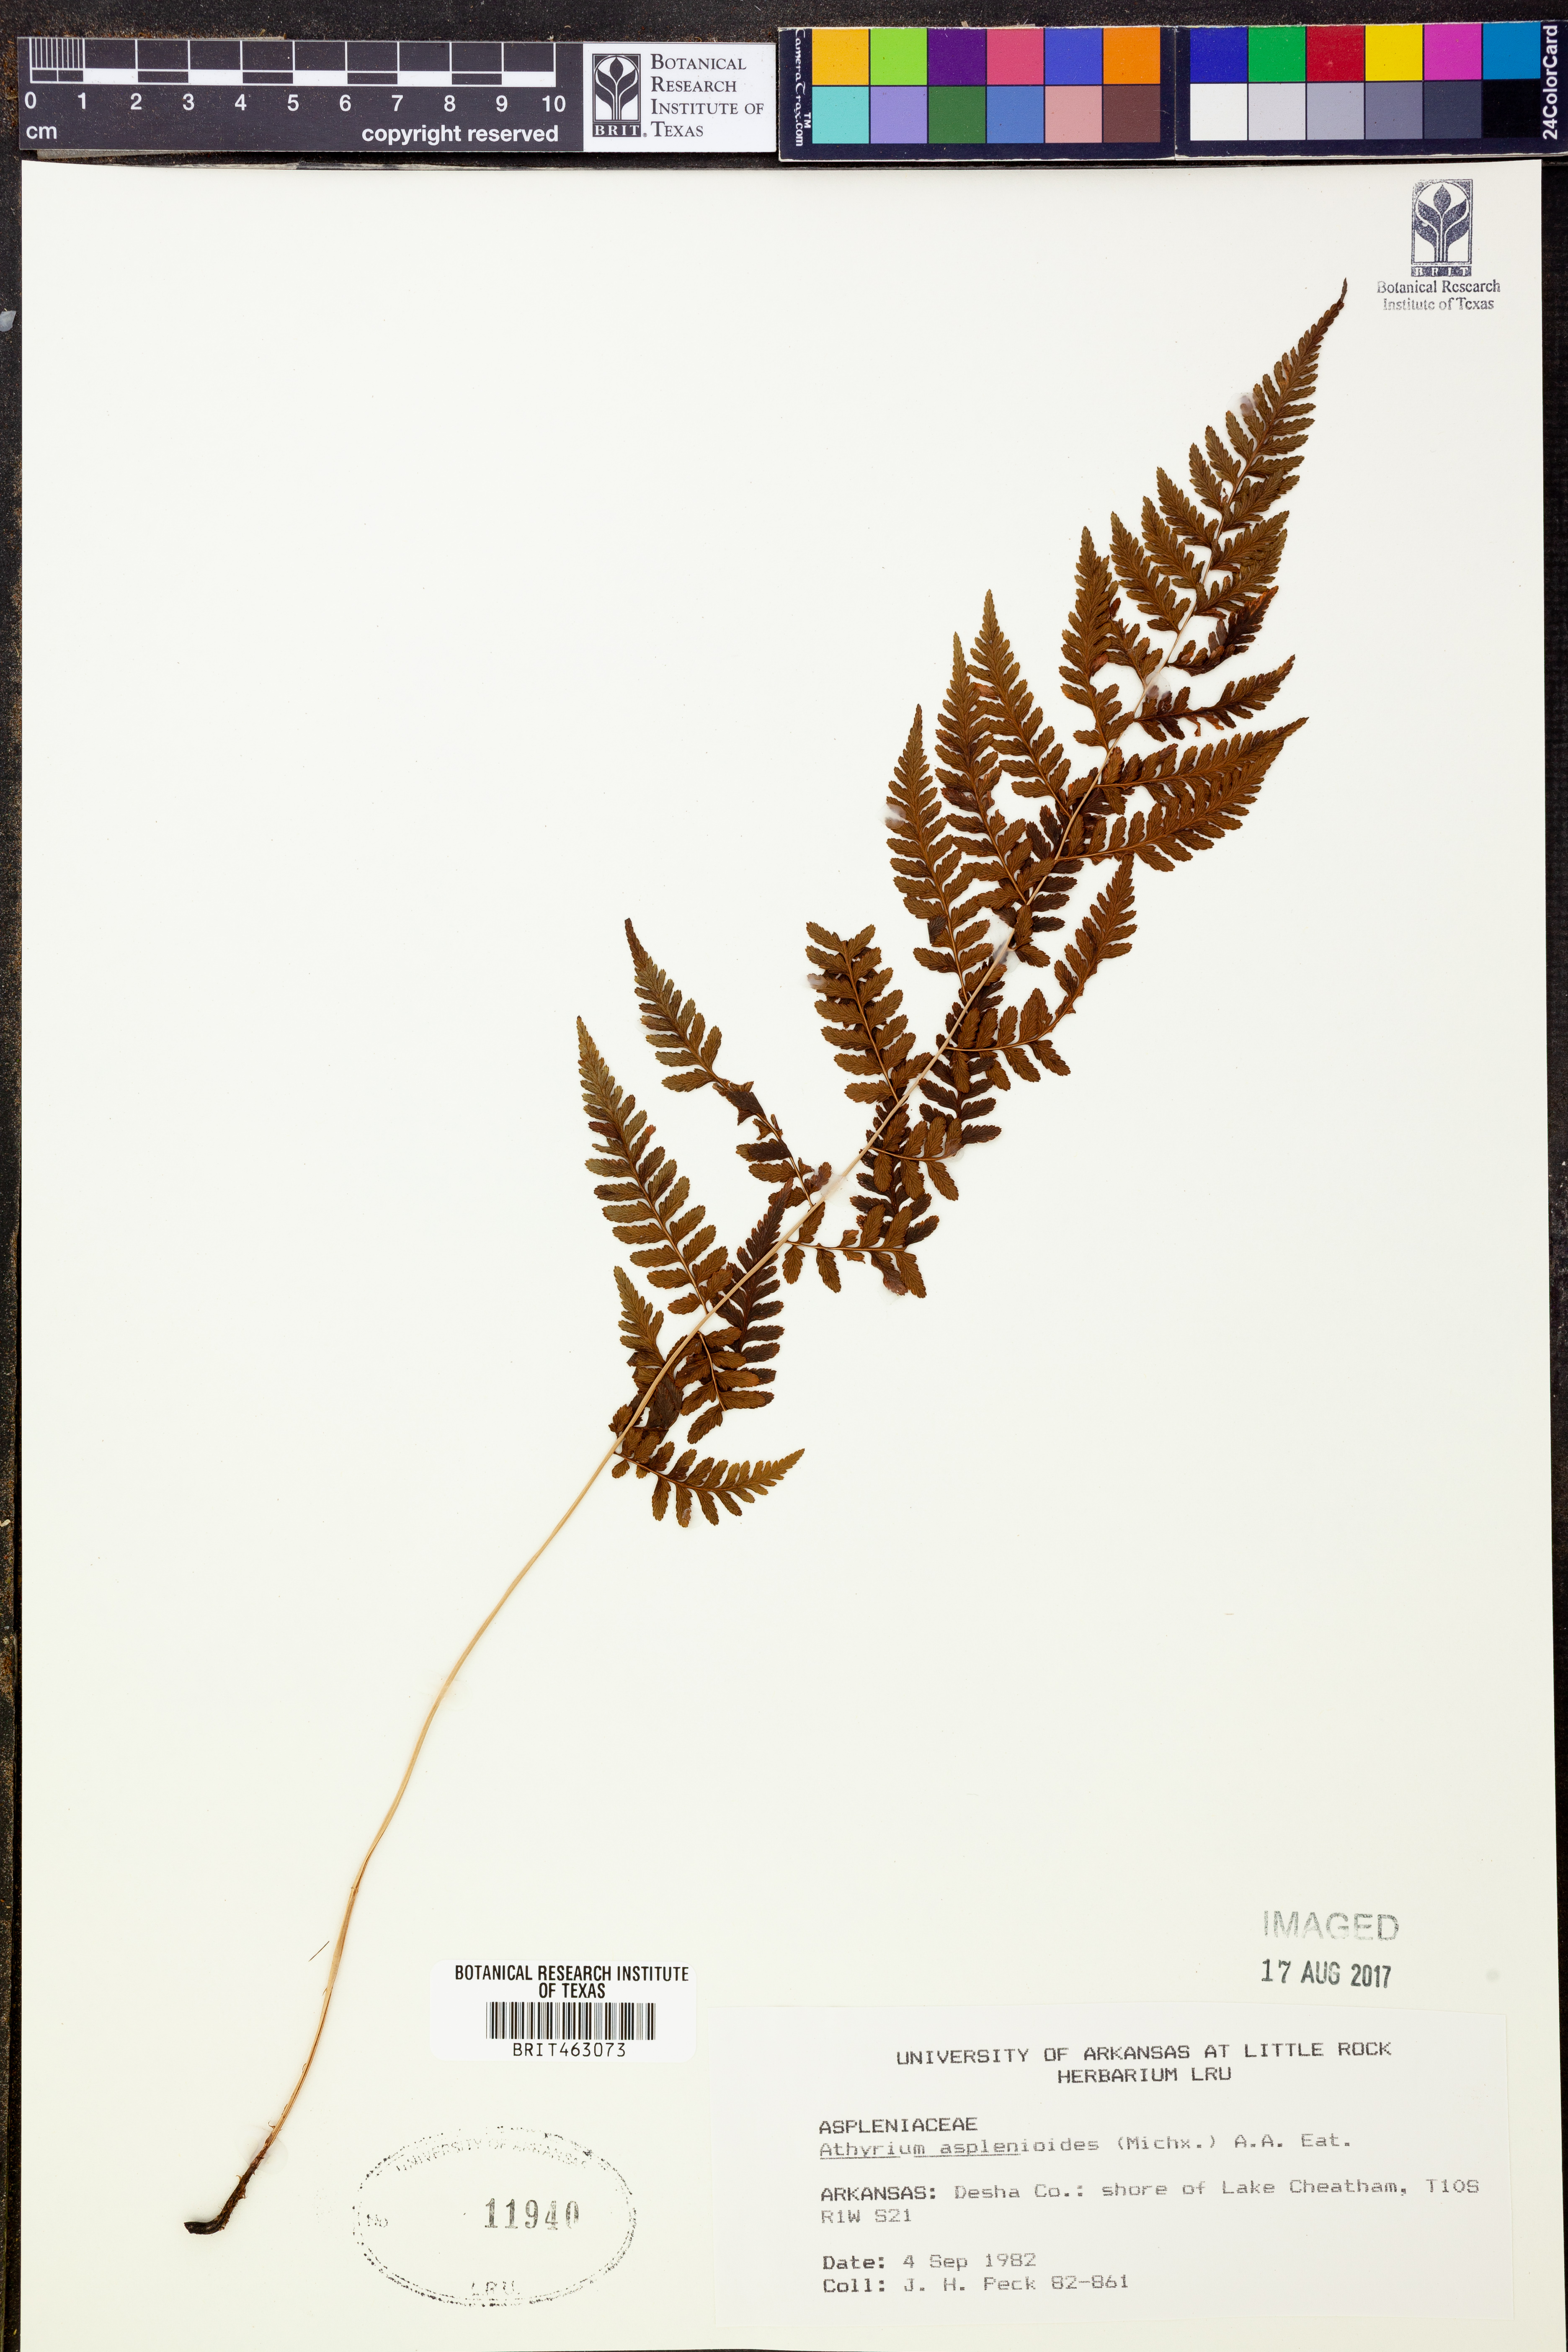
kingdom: Plantae
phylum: Tracheophyta
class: Polypodiopsida
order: Polypodiales
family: Athyriaceae
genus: Athyrium
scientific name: Athyrium asplenioides
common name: Southern lady fern
